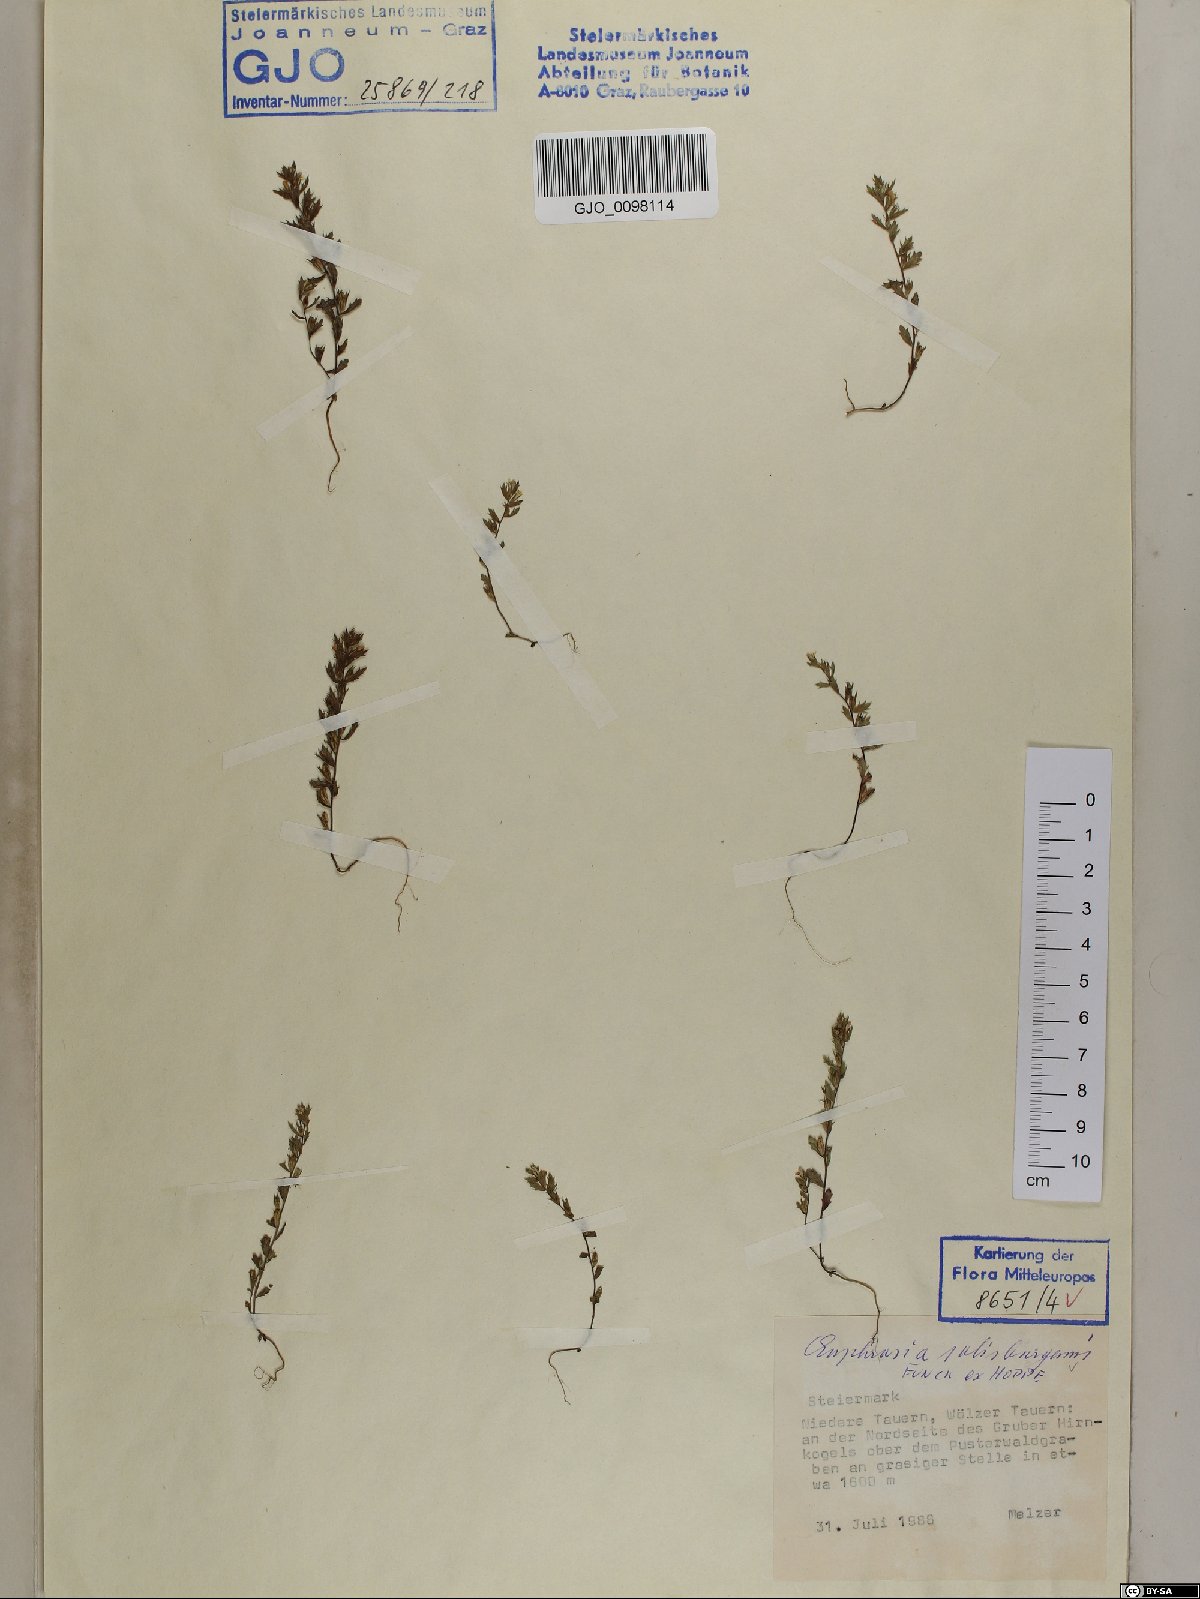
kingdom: Plantae
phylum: Tracheophyta
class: Magnoliopsida
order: Lamiales
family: Orobanchaceae
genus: Euphrasia
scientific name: Euphrasia salisburgensis
